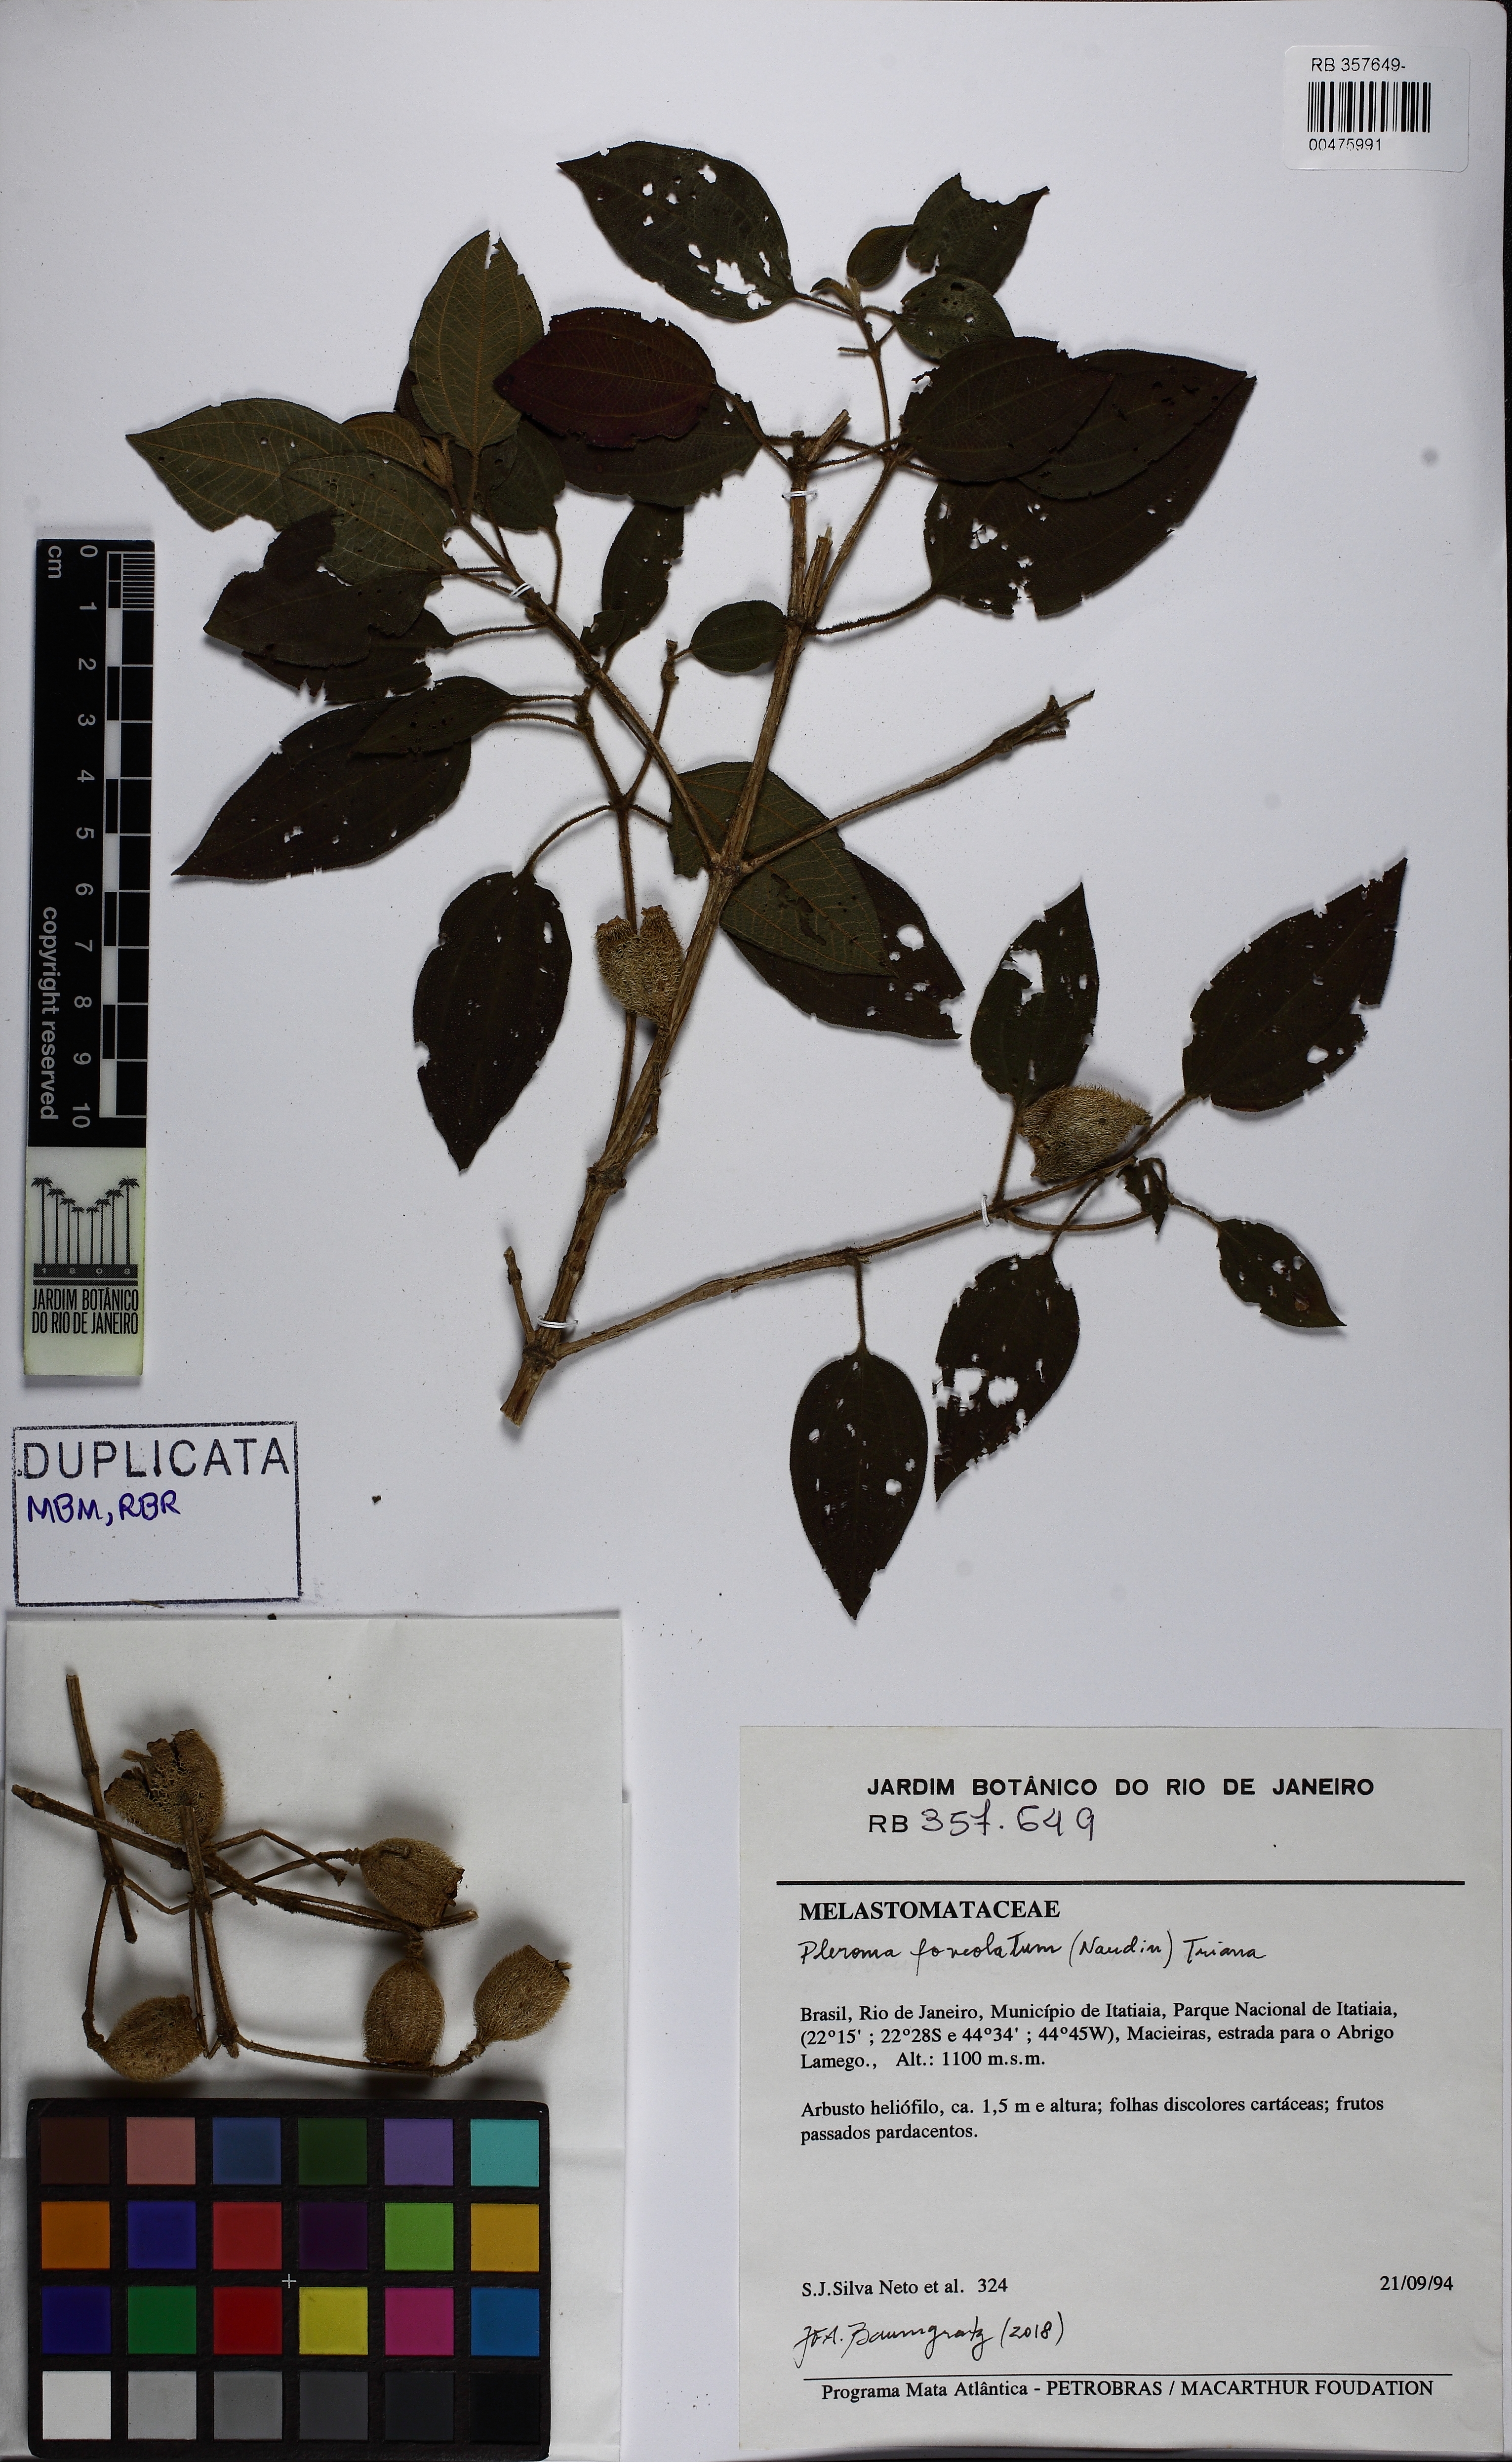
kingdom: Plantae
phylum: Tracheophyta
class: Magnoliopsida
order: Myrtales
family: Melastomataceae
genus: Pleroma
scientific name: Pleroma foveolatum
